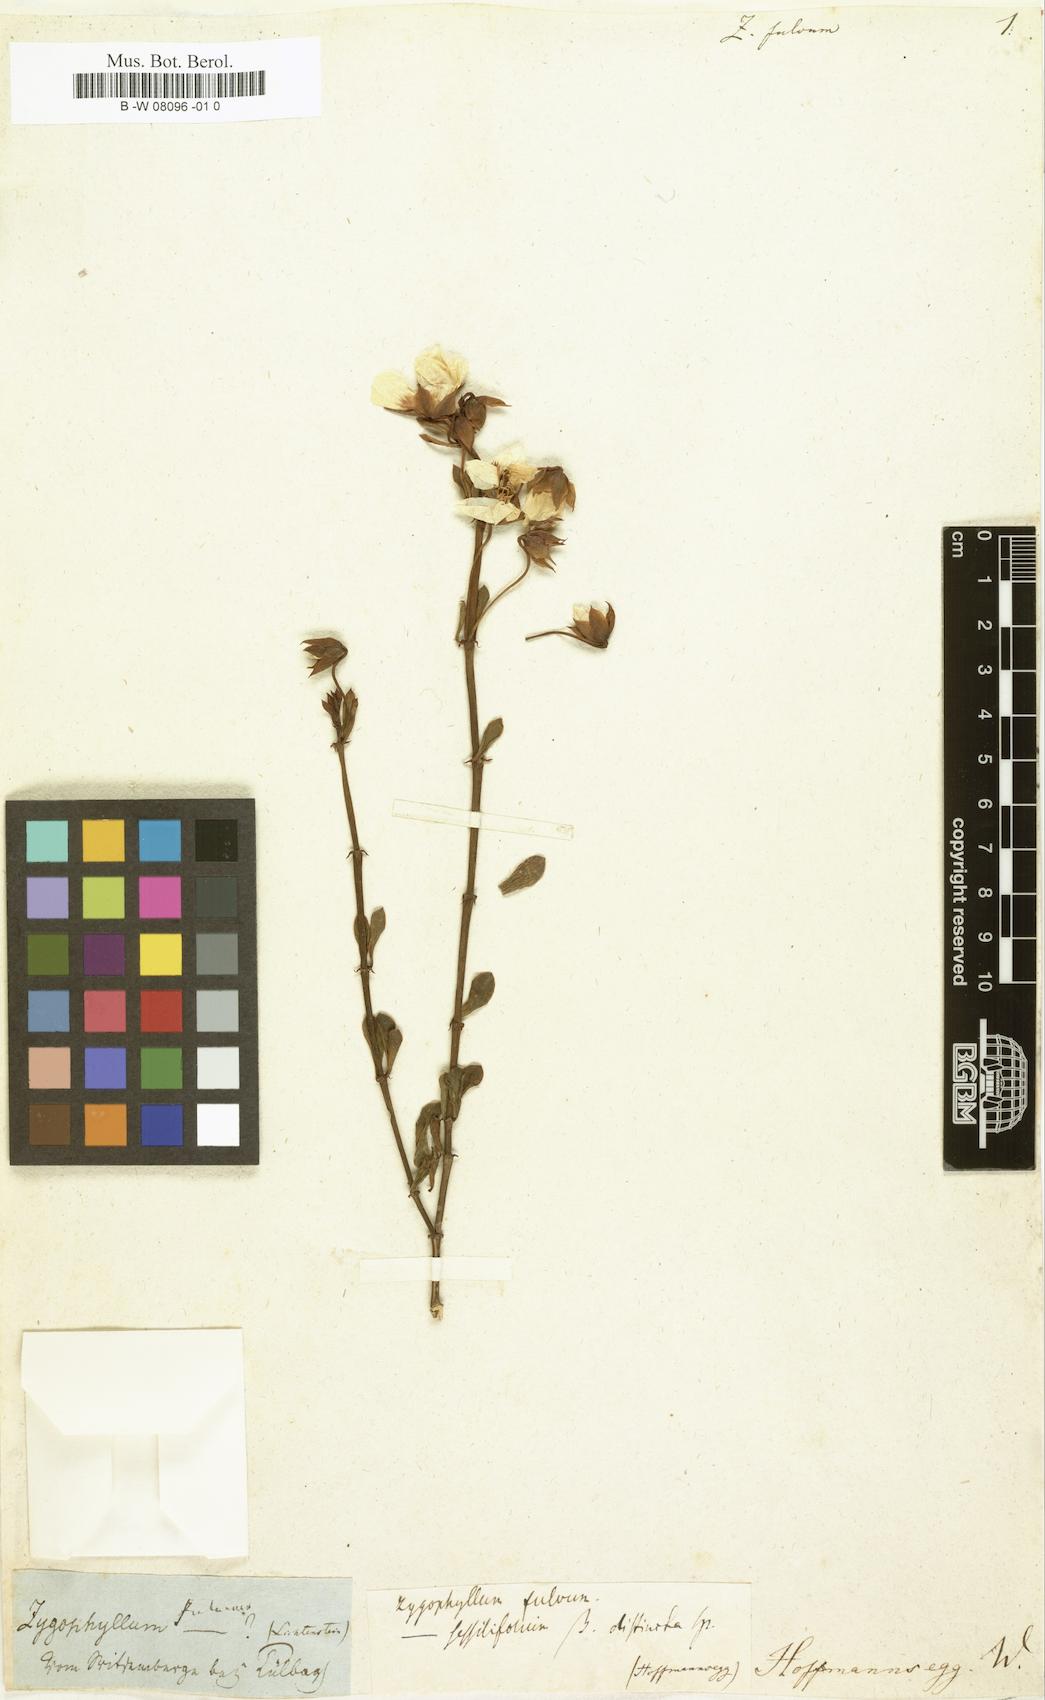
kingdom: Plantae
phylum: Tracheophyta
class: Magnoliopsida
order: Zygophyllales
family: Zygophyllaceae
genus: Roepera
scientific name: Roepera fulva
